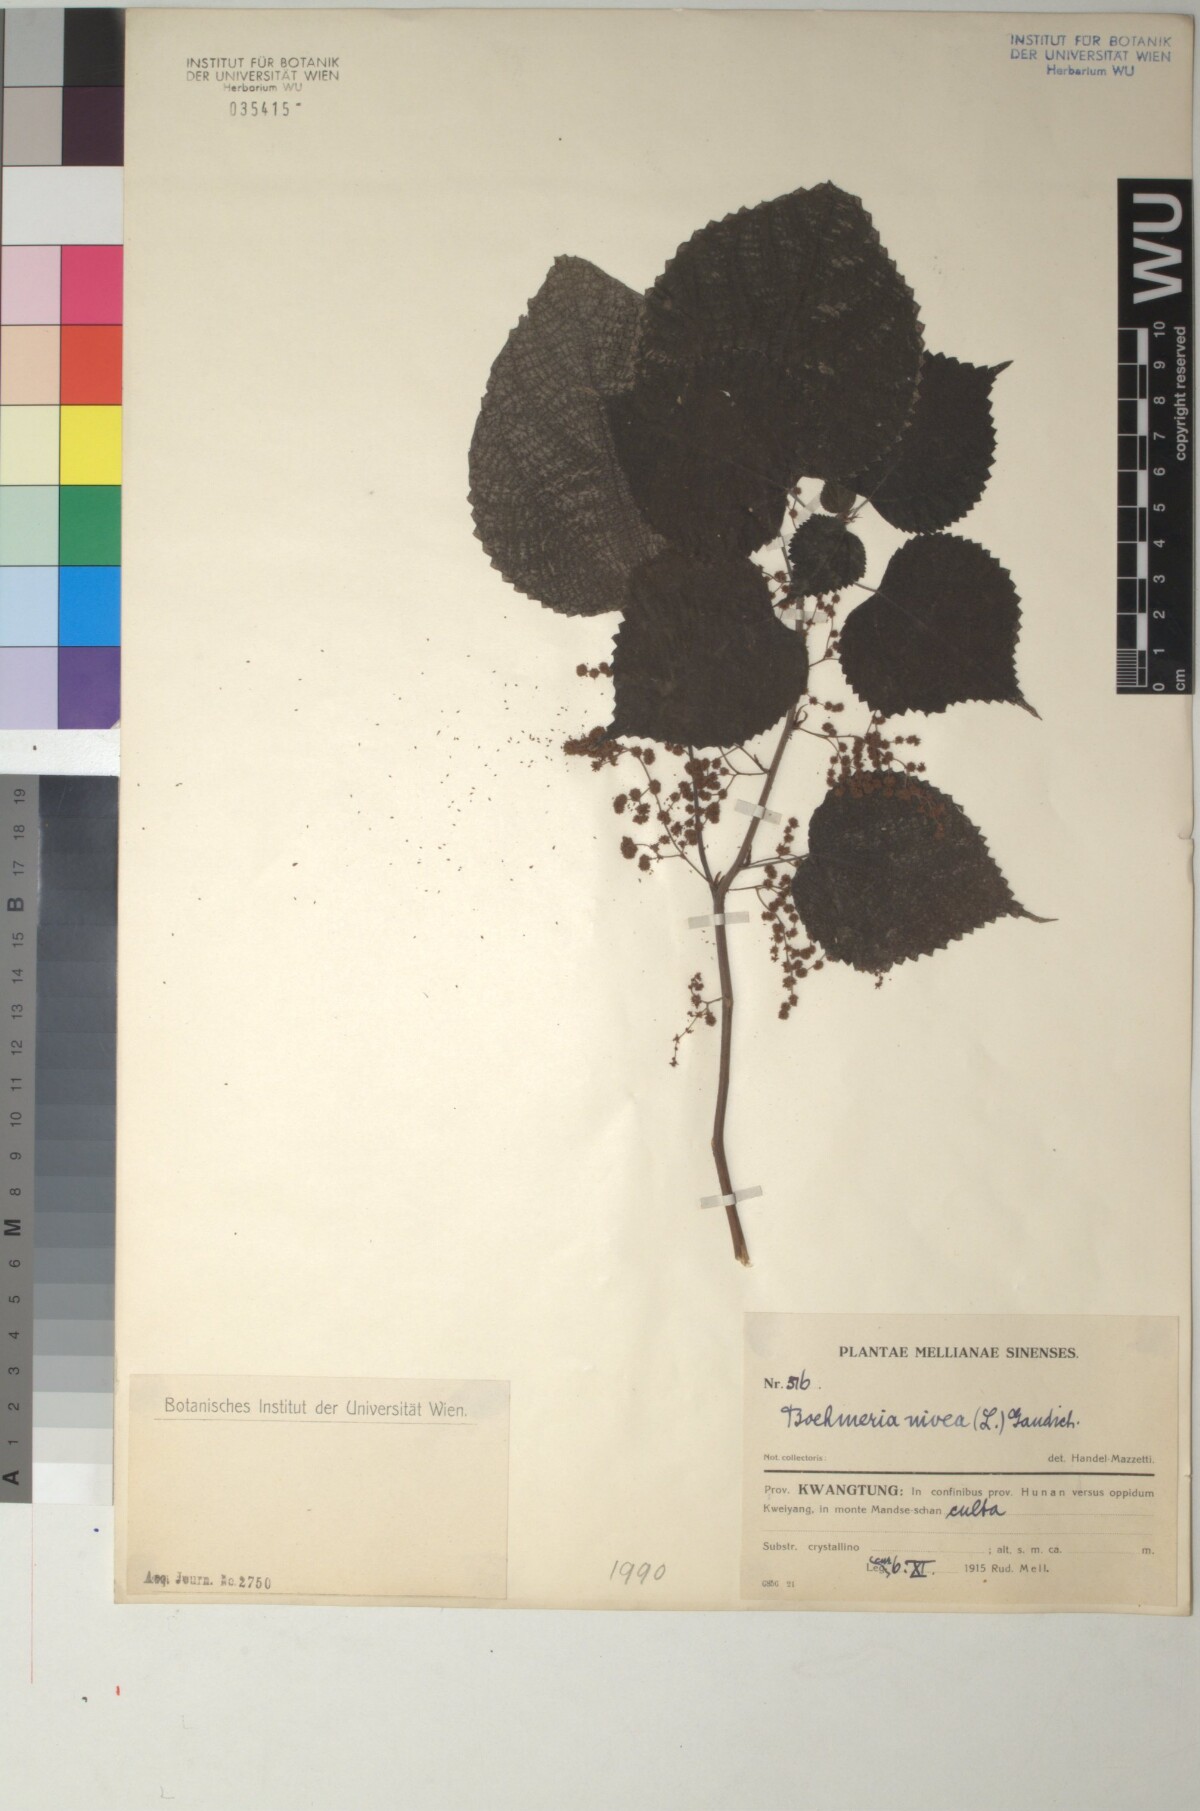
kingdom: Plantae
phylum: Tracheophyta
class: Magnoliopsida
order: Rosales
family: Urticaceae
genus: Boehmeria
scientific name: Boehmeria nivea
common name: Ramie chinese grass
